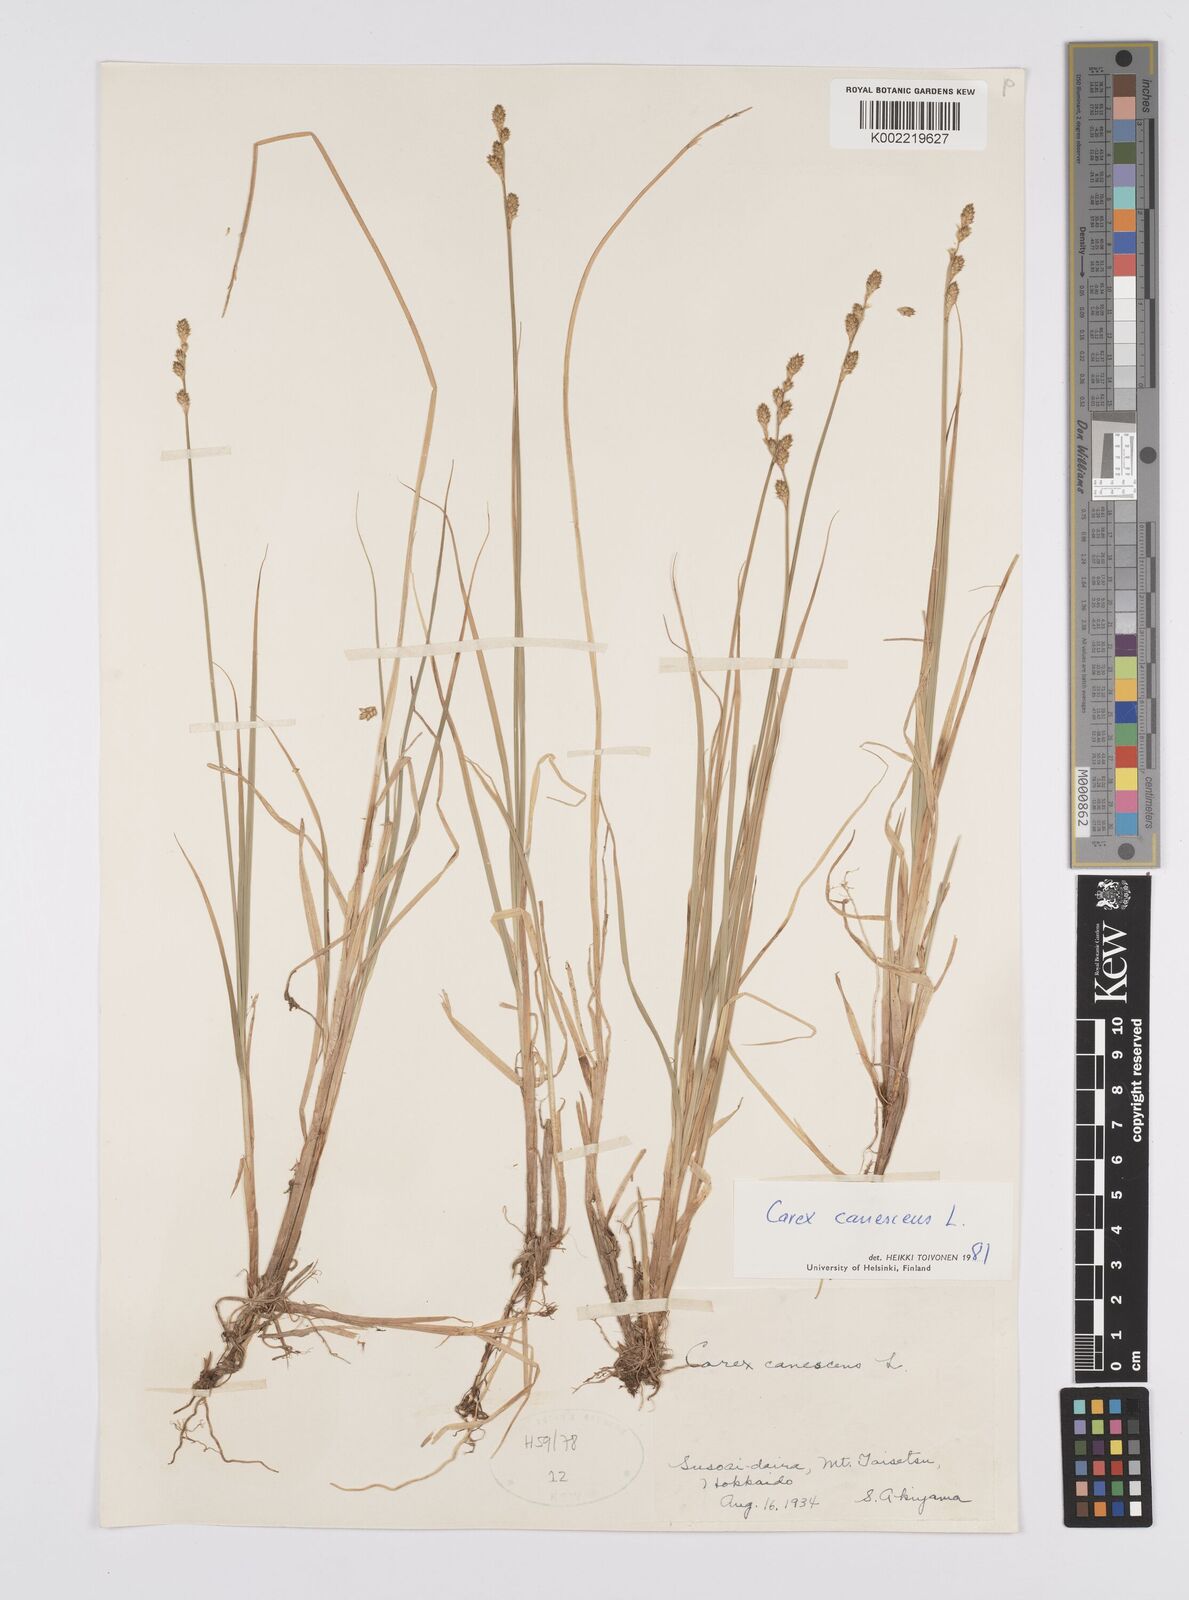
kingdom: Plantae
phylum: Tracheophyta
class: Liliopsida
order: Poales
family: Cyperaceae
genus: Carex
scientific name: Carex canescens
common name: White sedge
